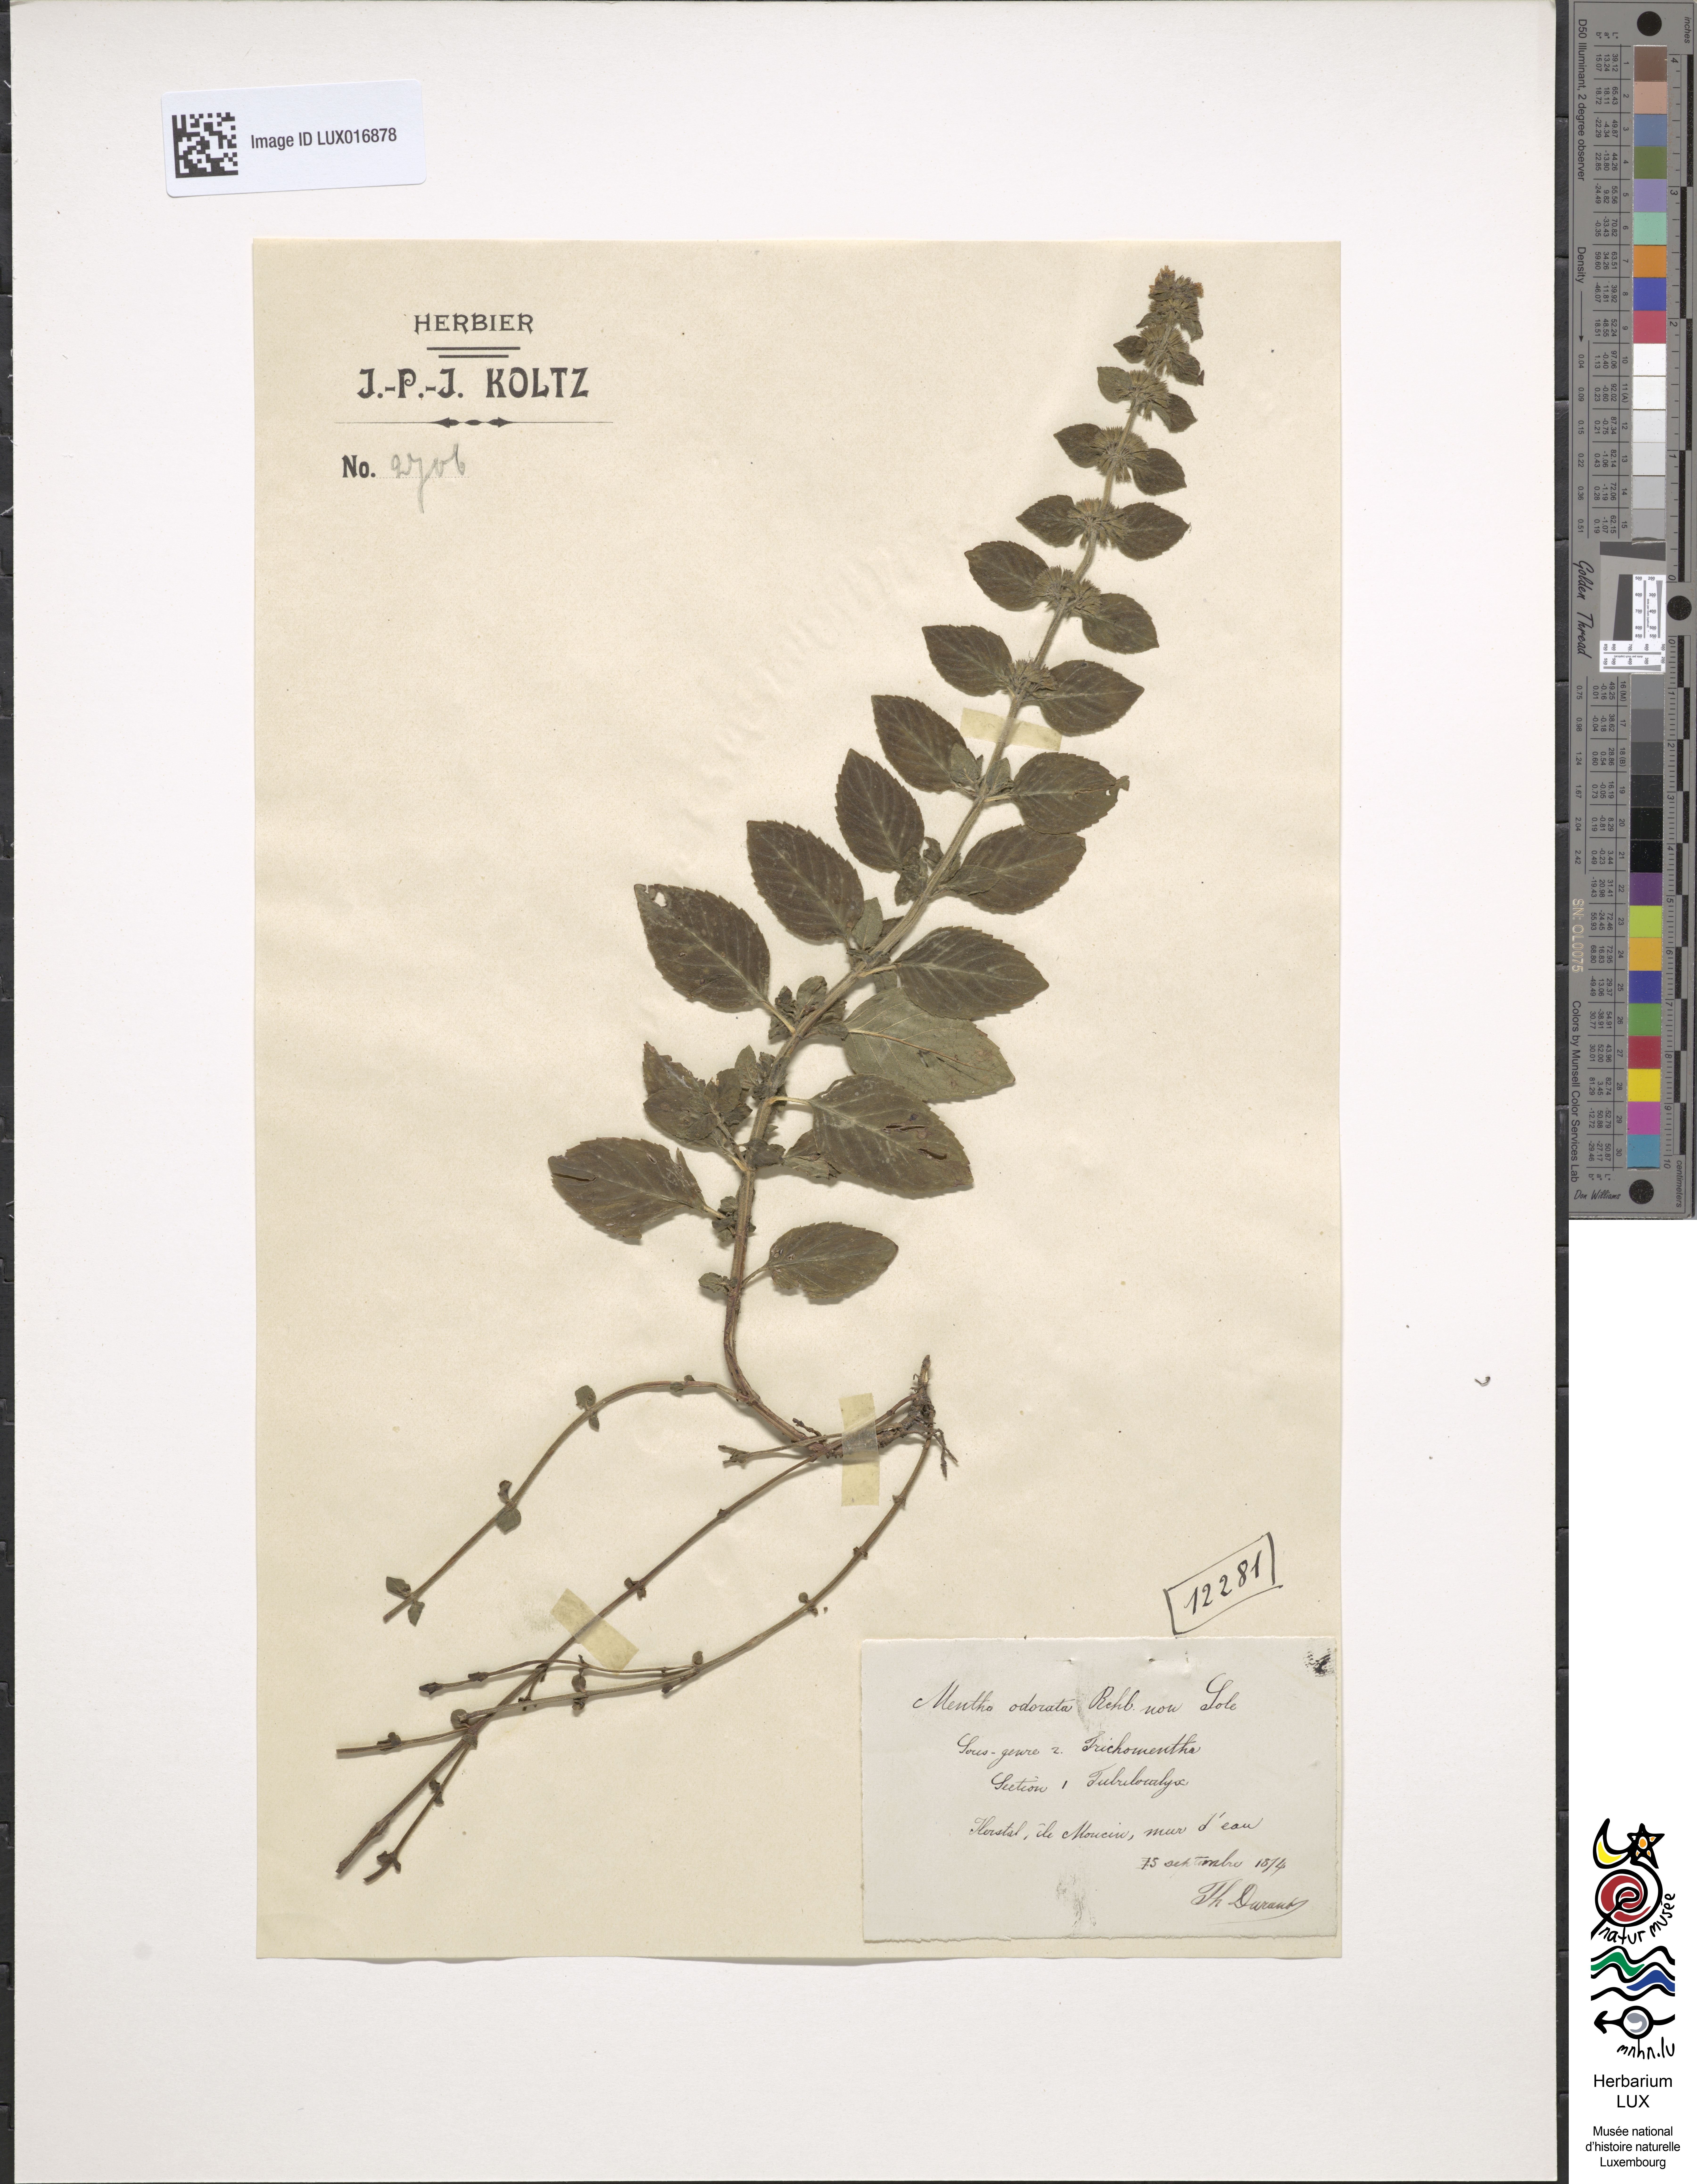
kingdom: Plantae
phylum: Tracheophyta
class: Magnoliopsida
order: Lamiales
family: Lamiaceae
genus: Mentha
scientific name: Mentha
